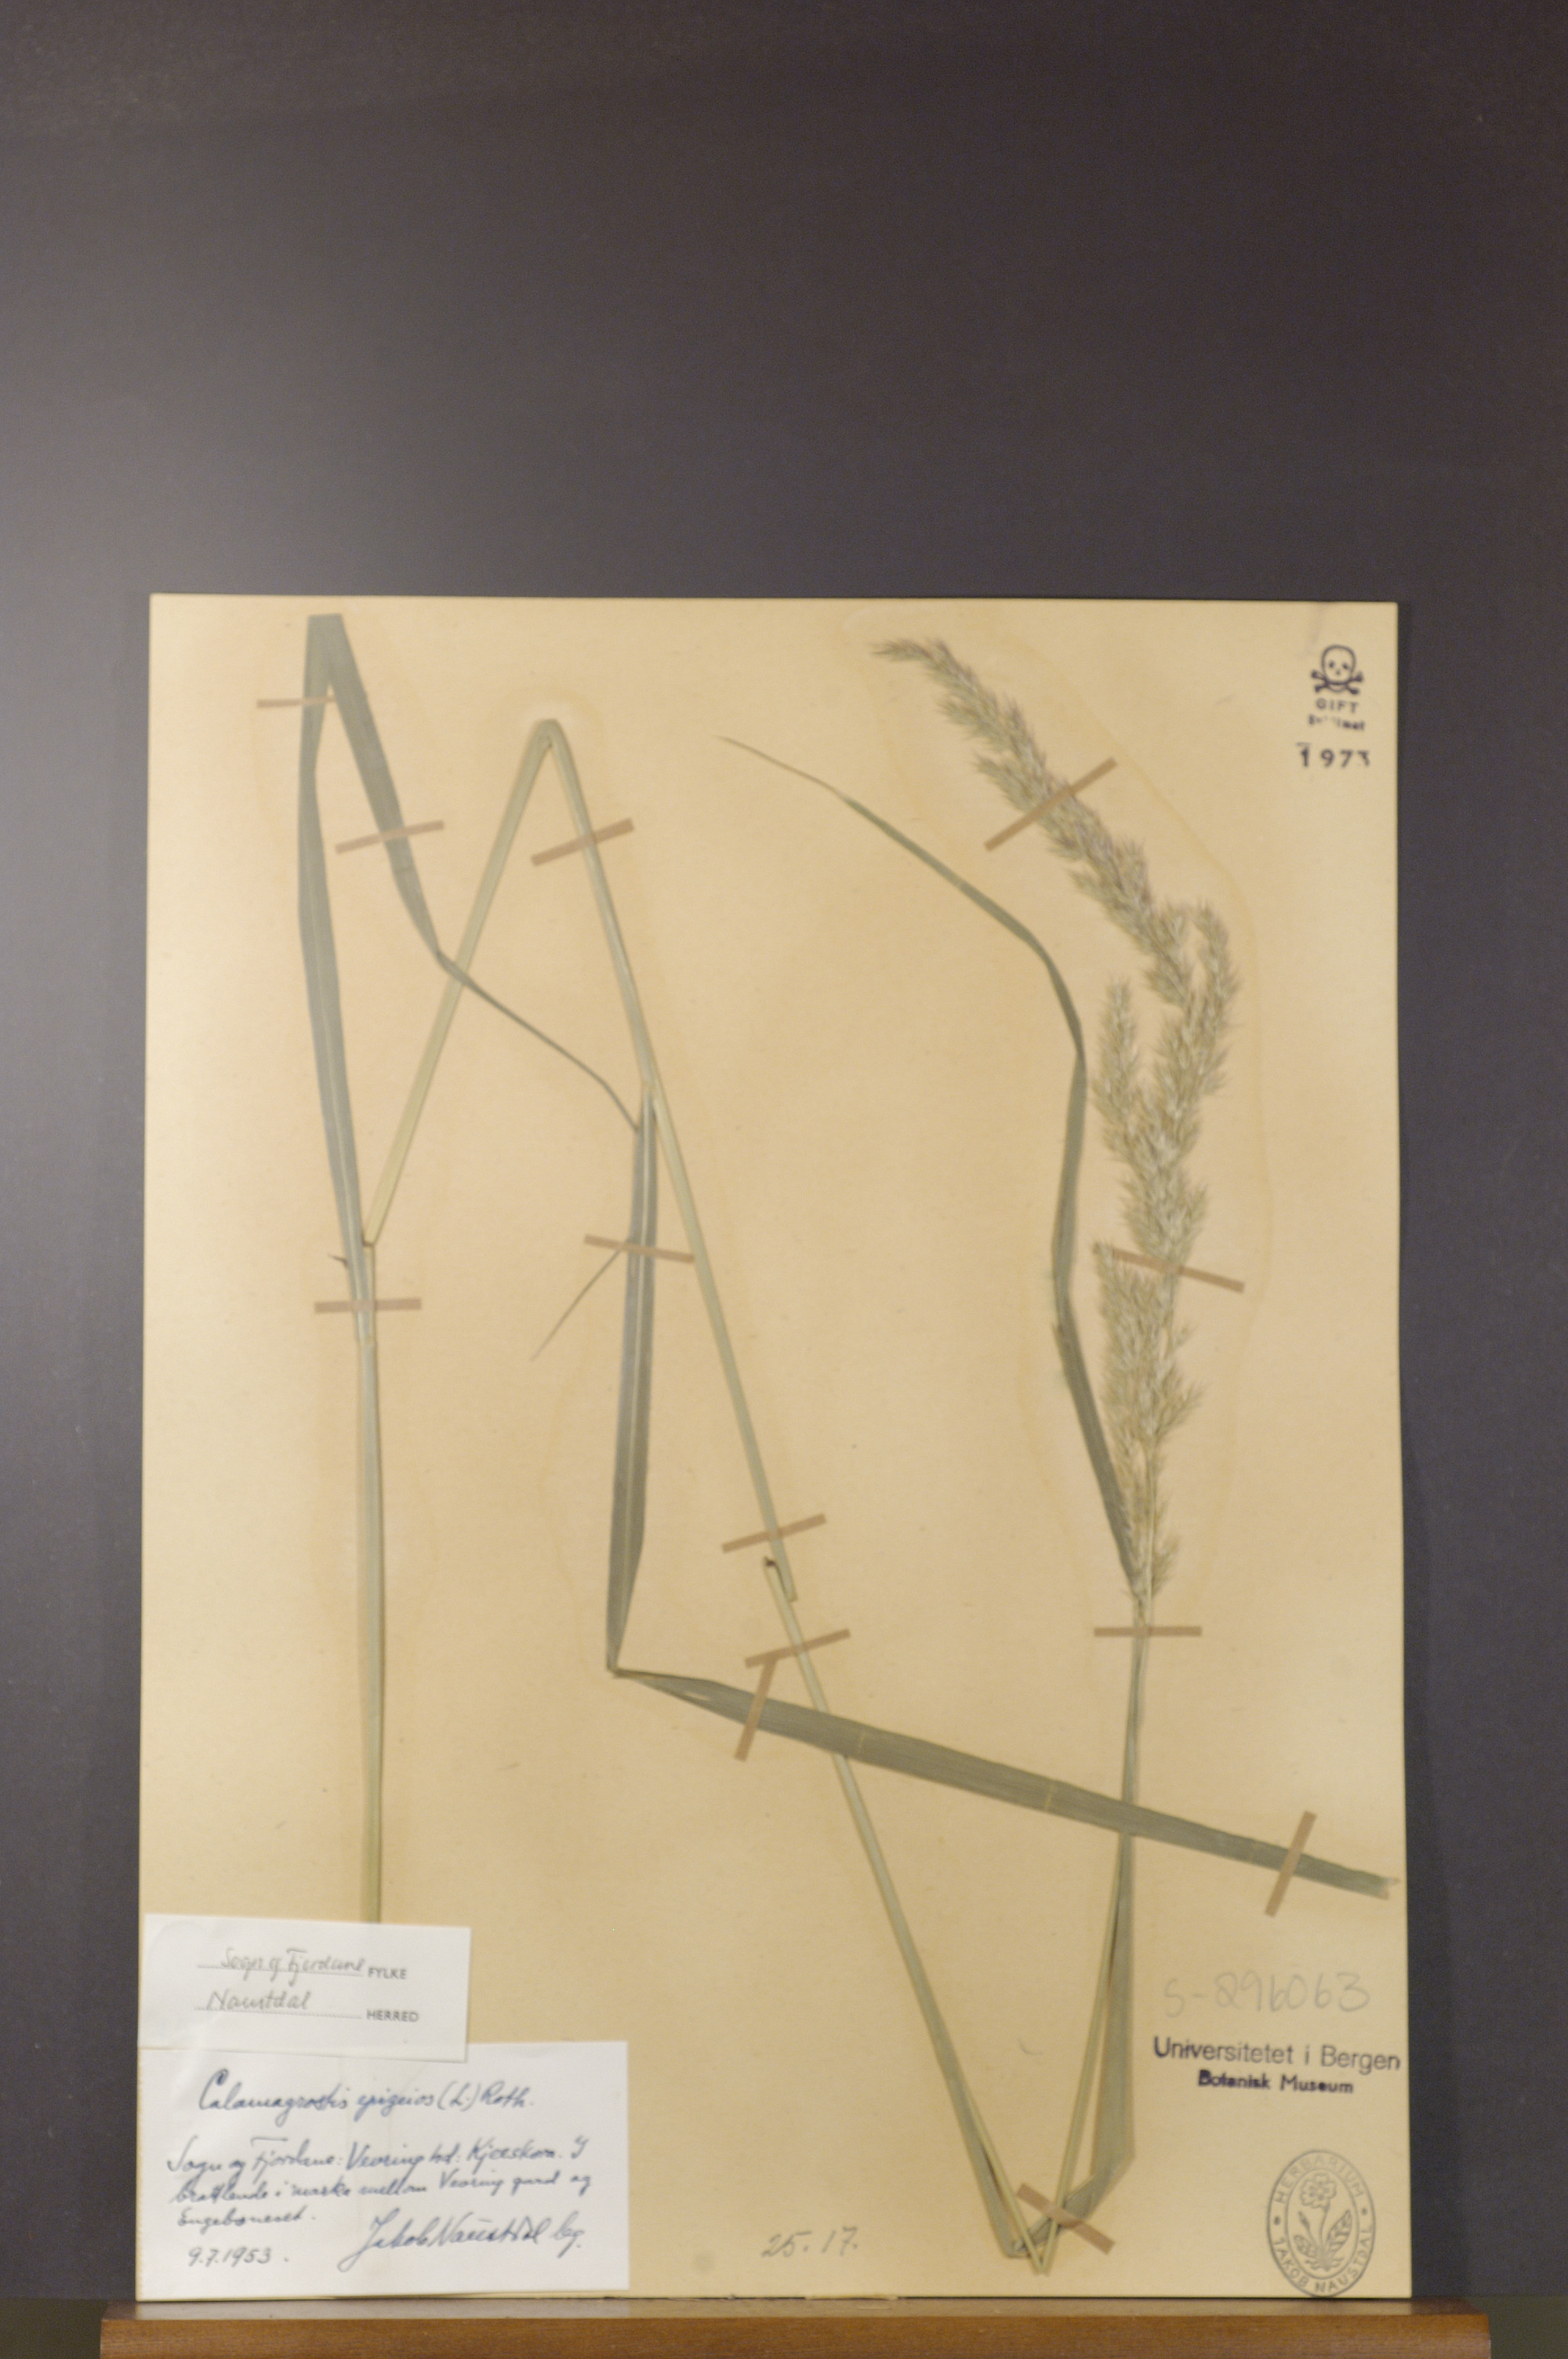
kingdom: Plantae
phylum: Tracheophyta
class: Liliopsida
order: Poales
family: Poaceae
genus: Calamagrostis
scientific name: Calamagrostis epigejos
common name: Wood small-reed
